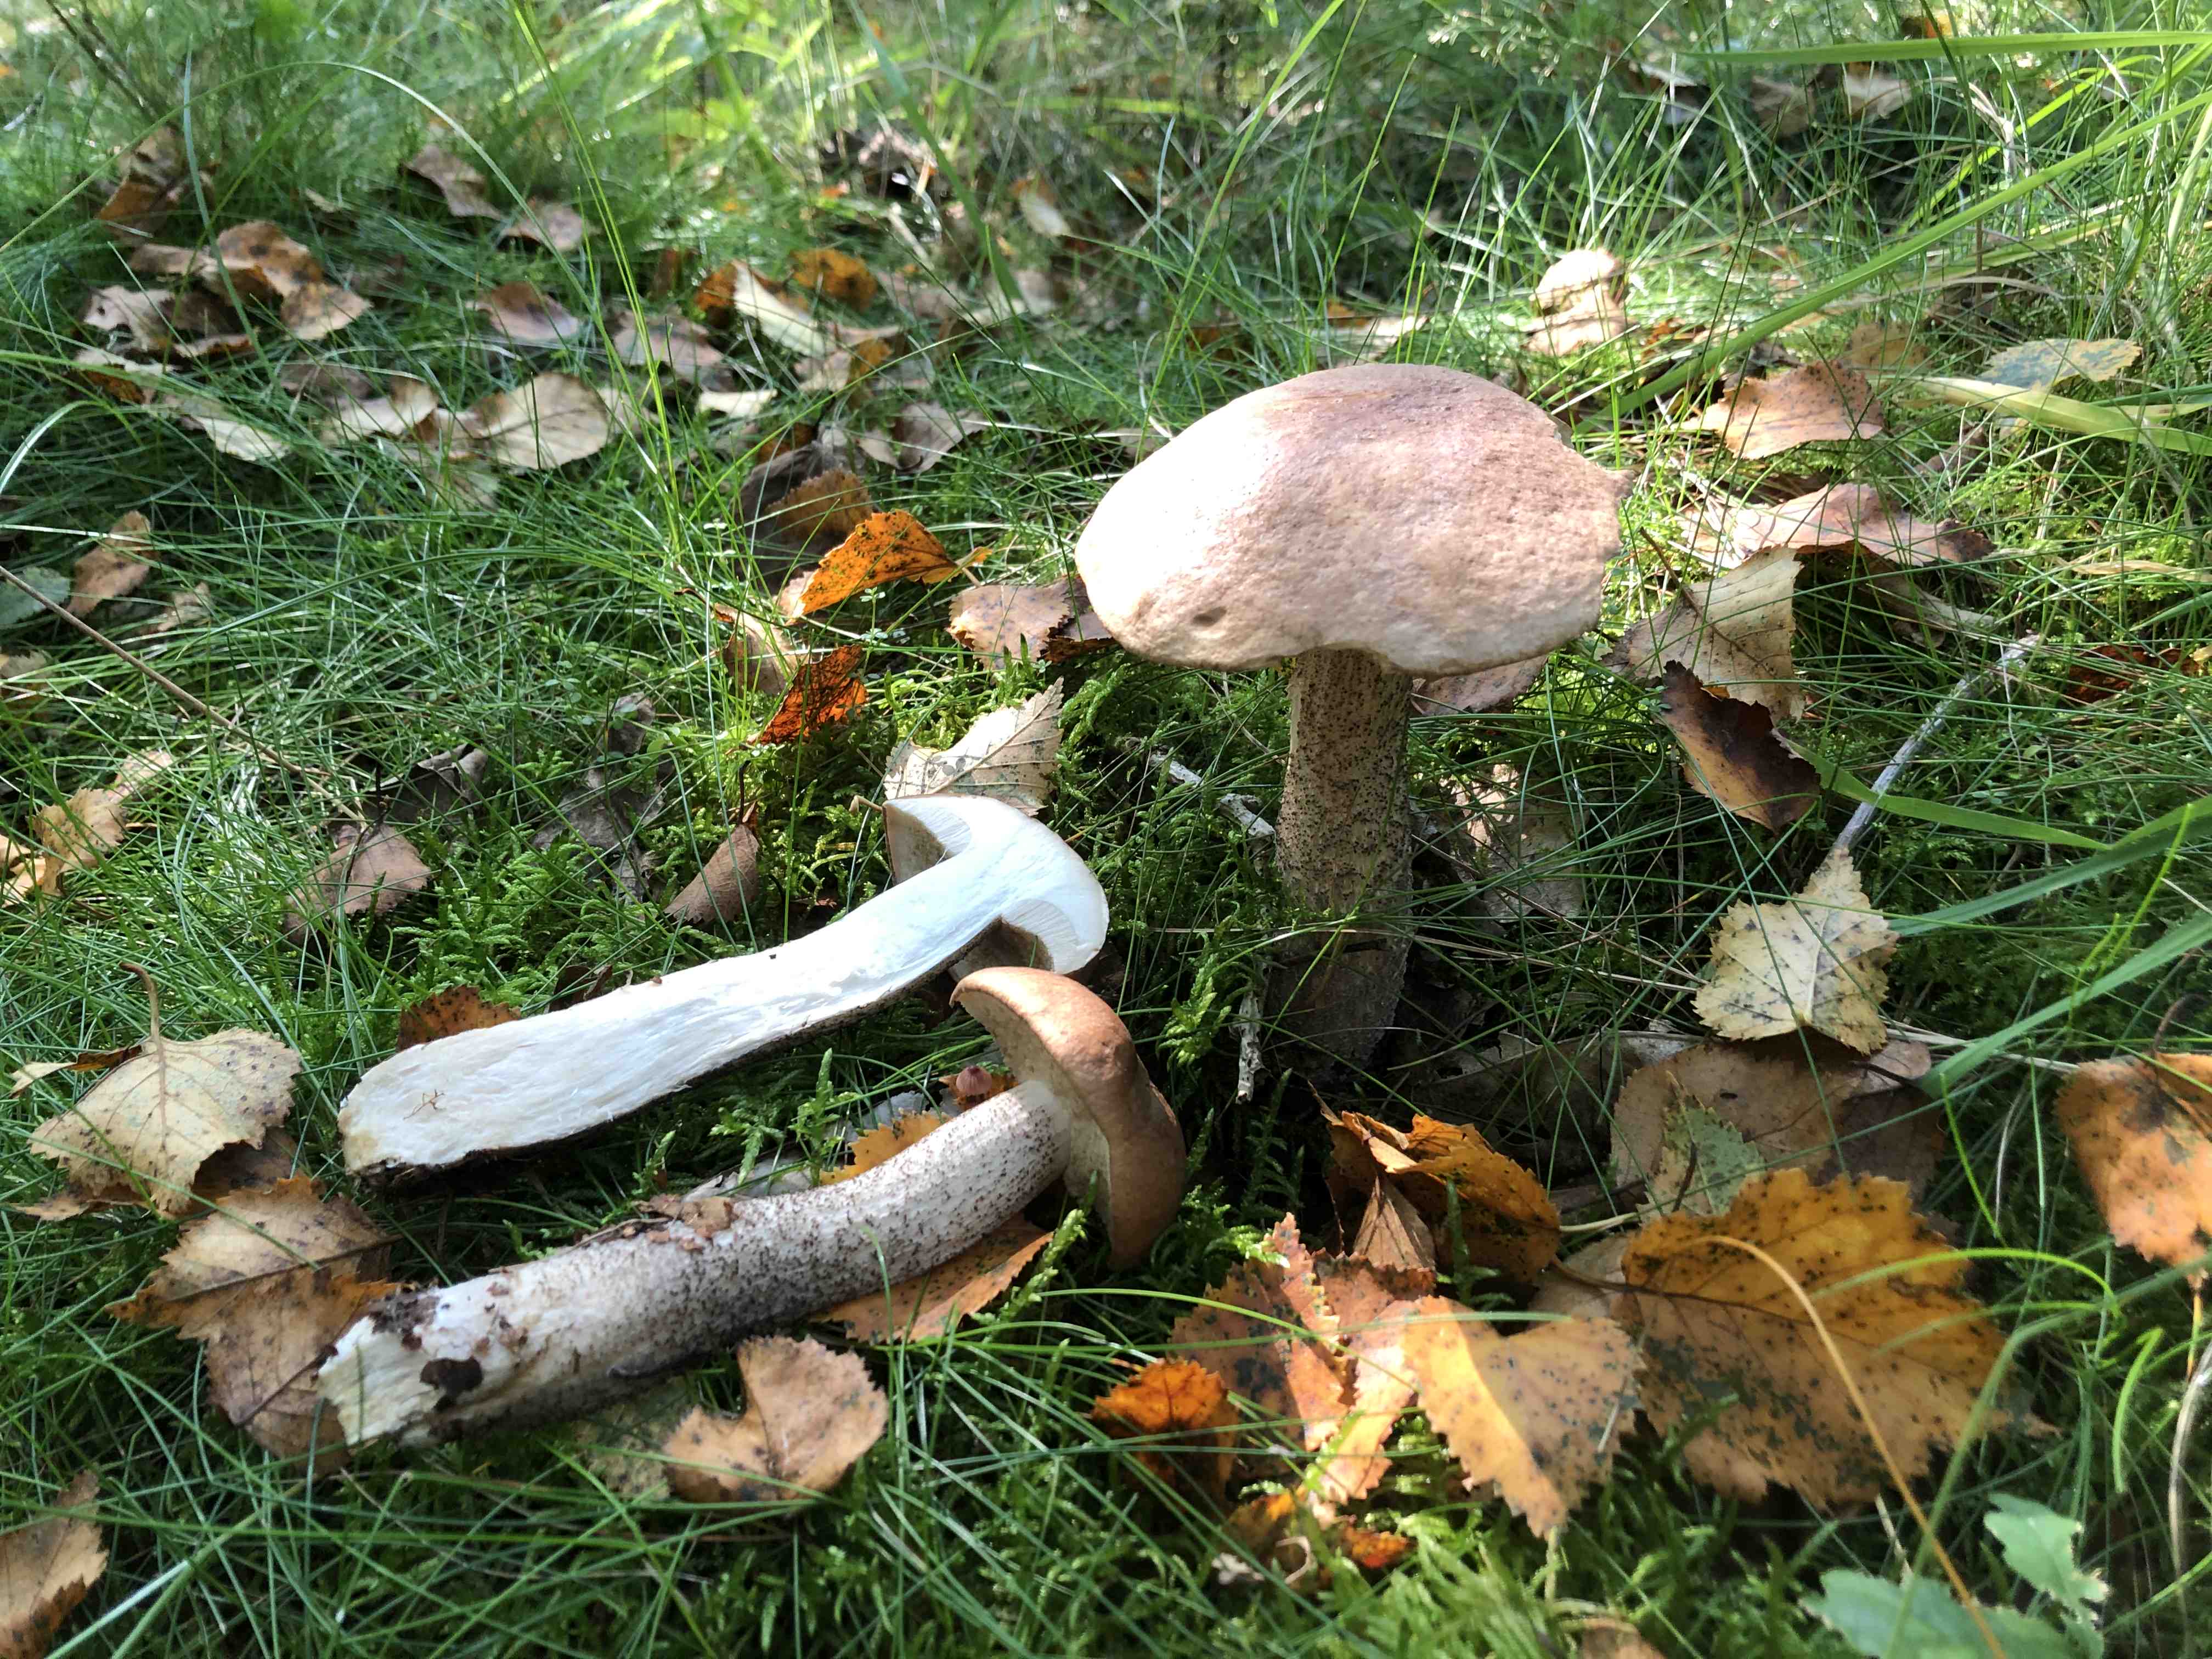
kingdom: Fungi
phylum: Basidiomycota
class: Agaricomycetes
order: Boletales
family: Boletaceae
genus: Leccinum
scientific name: Leccinum scabrum
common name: brun skælrørhat
